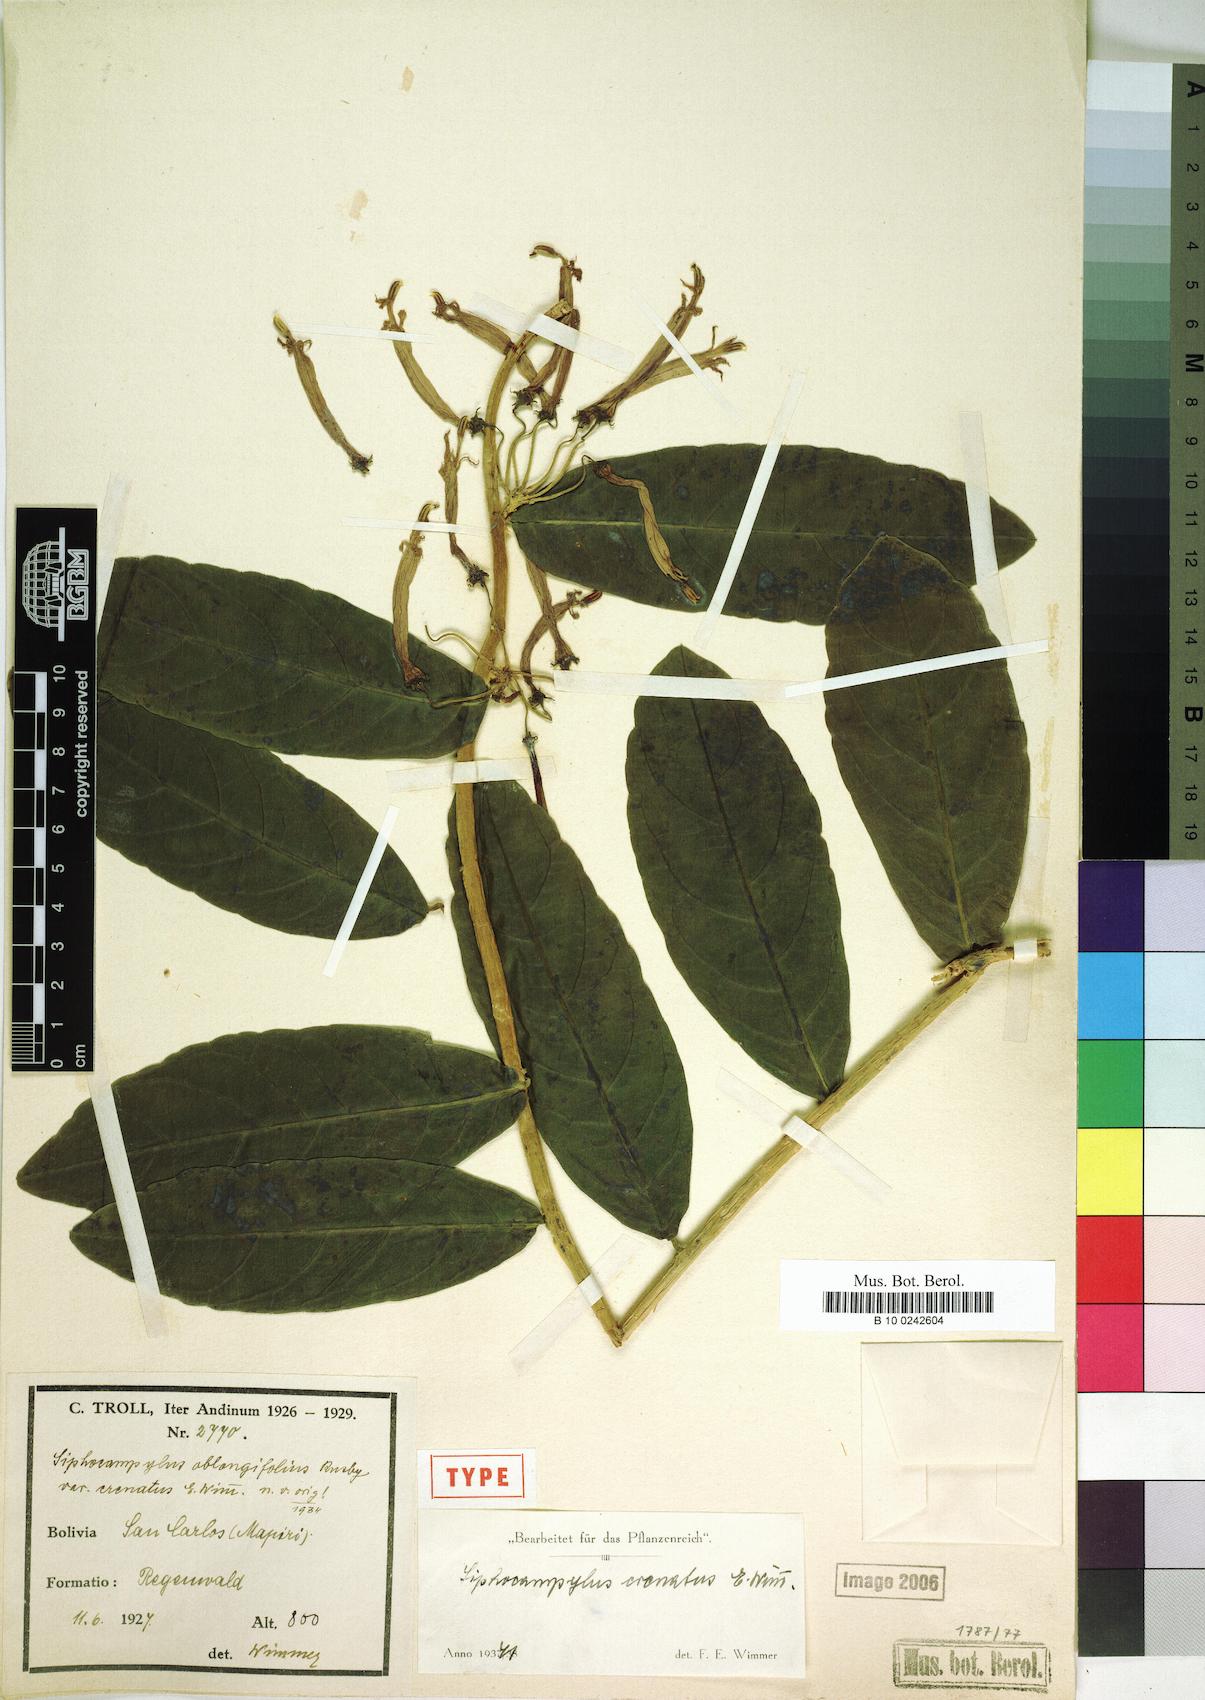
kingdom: Plantae
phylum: Tracheophyta
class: Magnoliopsida
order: Asterales
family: Campanulaceae
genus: Siphocampylus
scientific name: Siphocampylus crenatus
